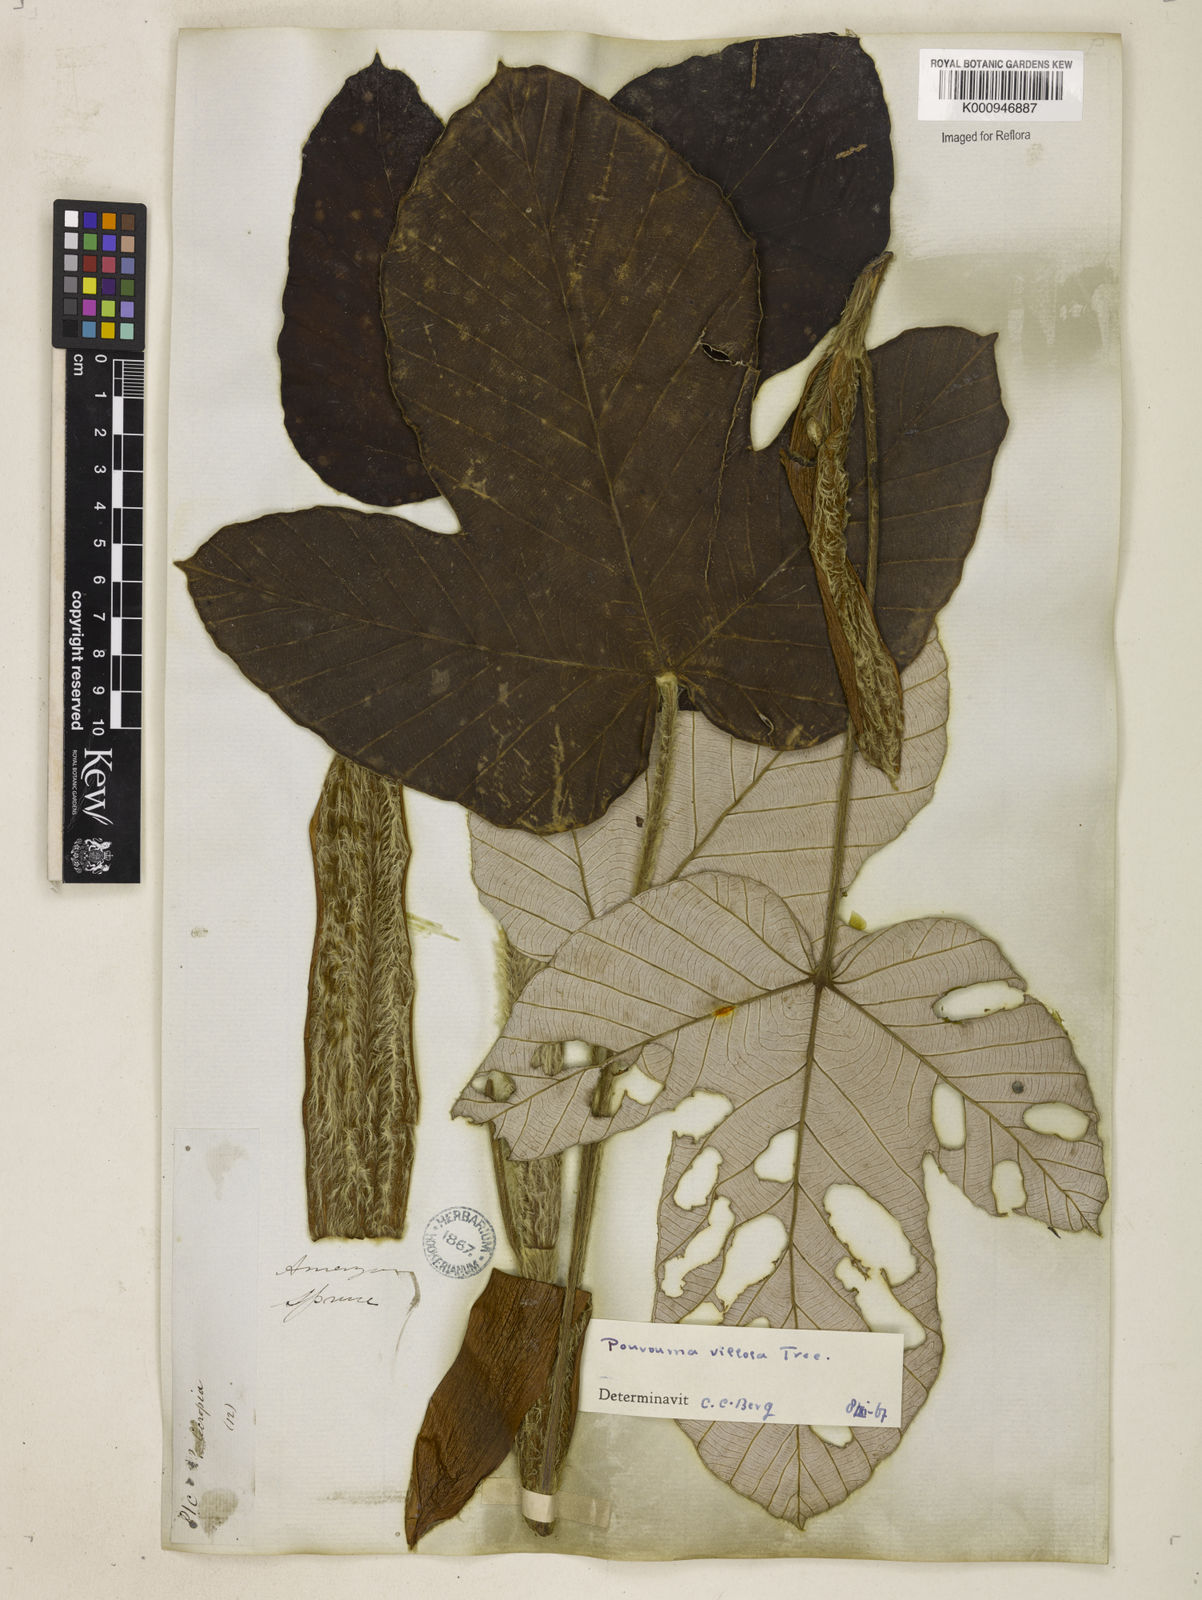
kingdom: Plantae
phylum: Tracheophyta
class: Magnoliopsida
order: Rosales
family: Urticaceae
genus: Pourouma
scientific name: Pourouma
